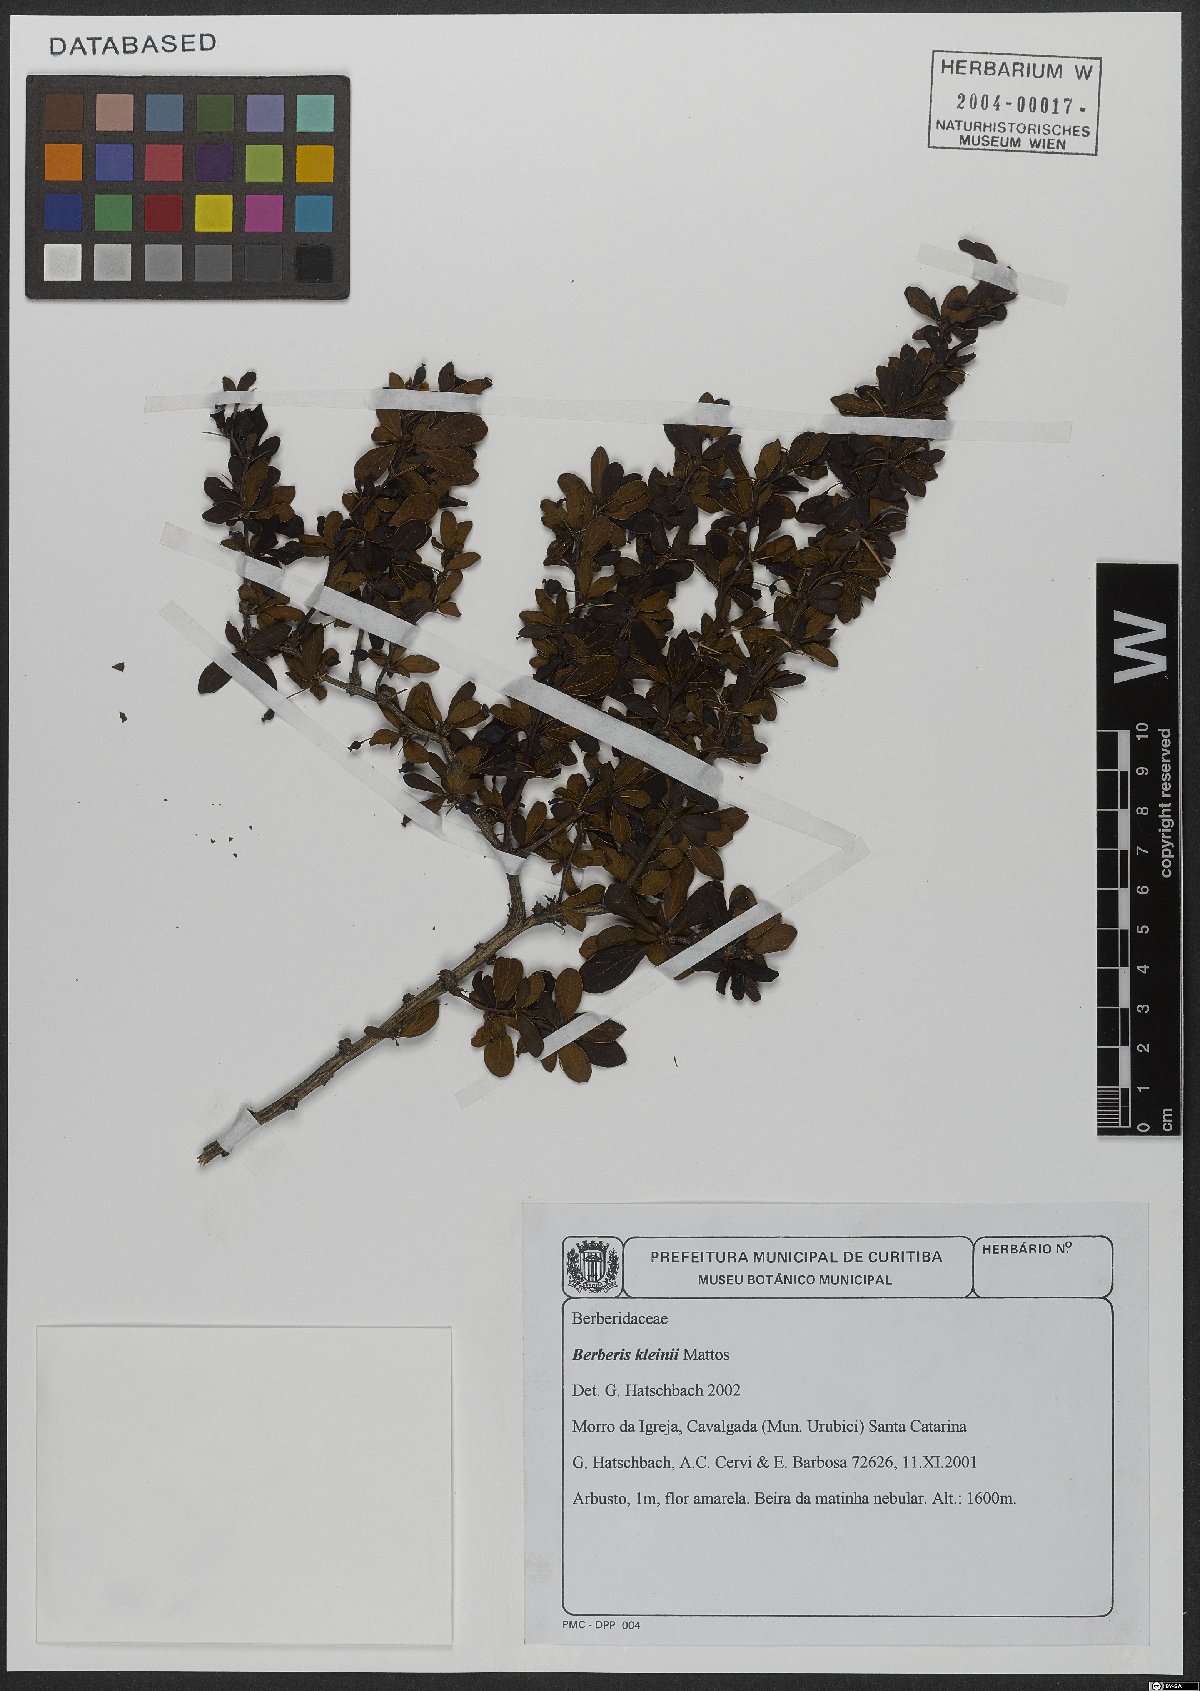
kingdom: Plantae
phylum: Tracheophyta
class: Magnoliopsida
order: Ranunculales
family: Berberidaceae
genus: Berberis
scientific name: Berberis kleinii
